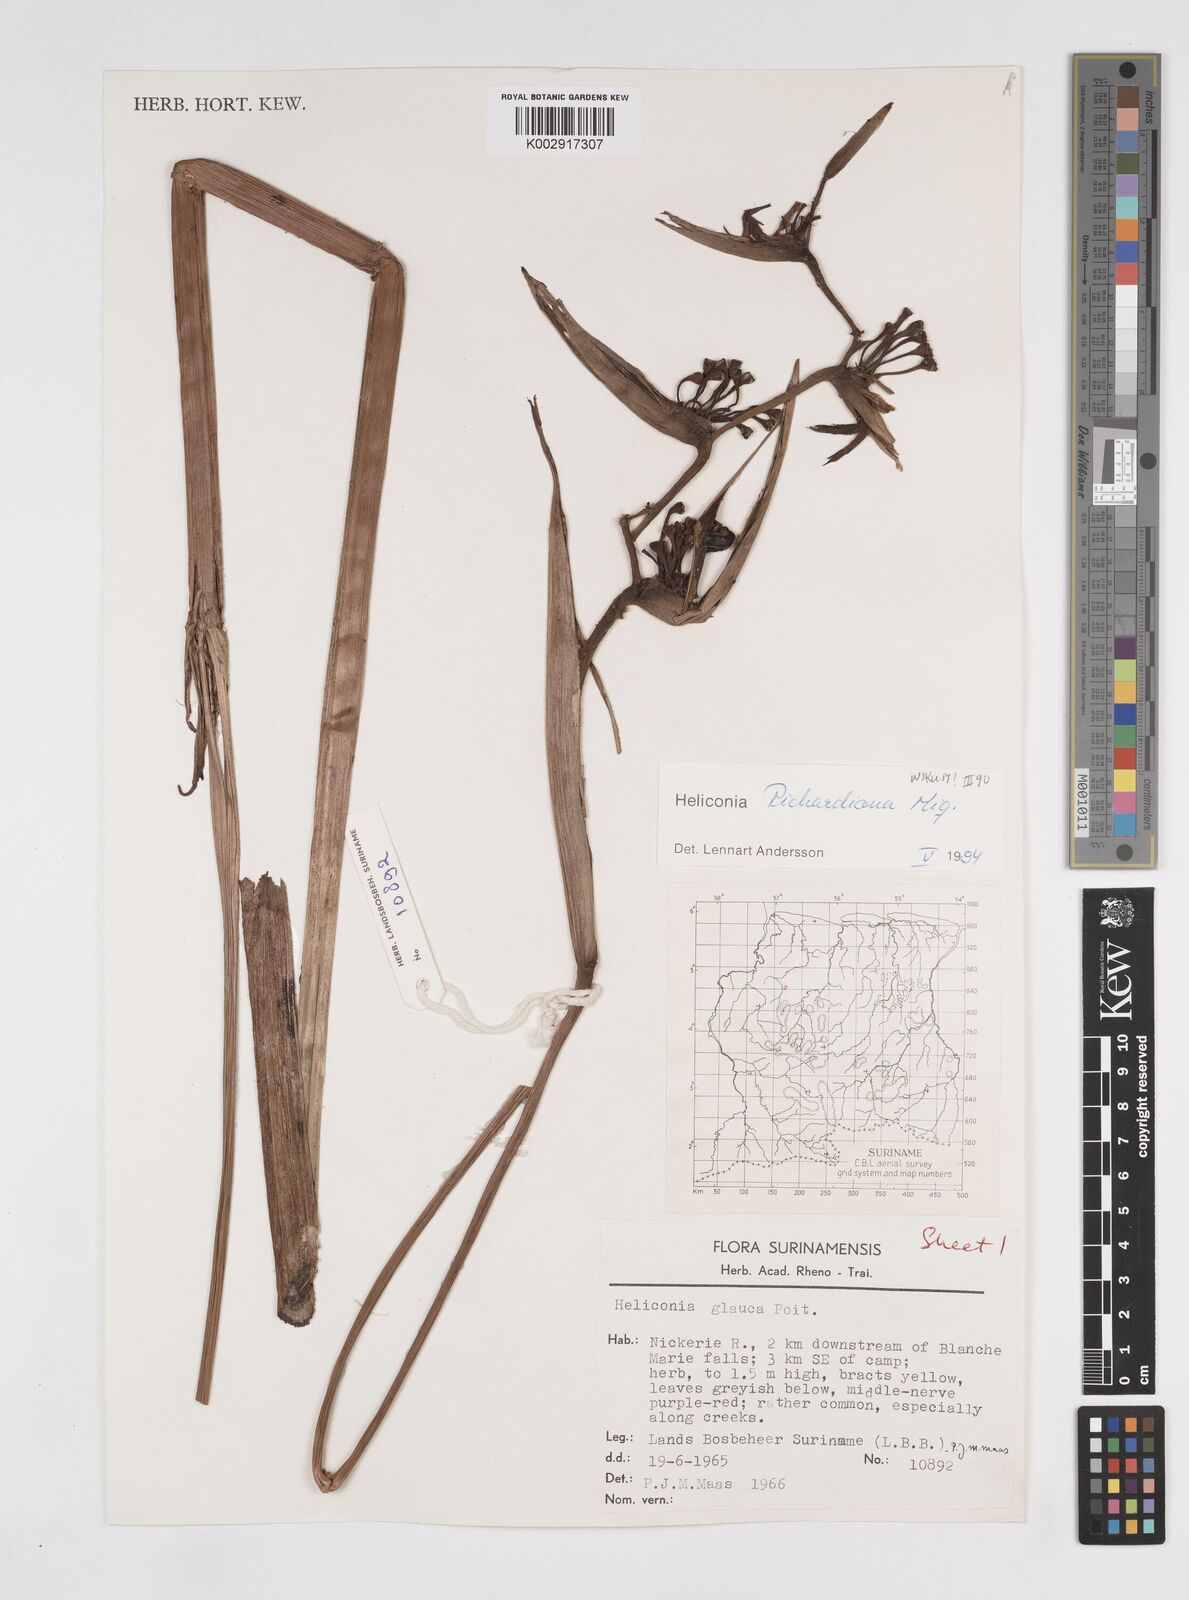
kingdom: Plantae
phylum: Tracheophyta
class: Liliopsida
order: Zingiberales
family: Heliconiaceae
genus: Heliconia
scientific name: Heliconia richardiana
